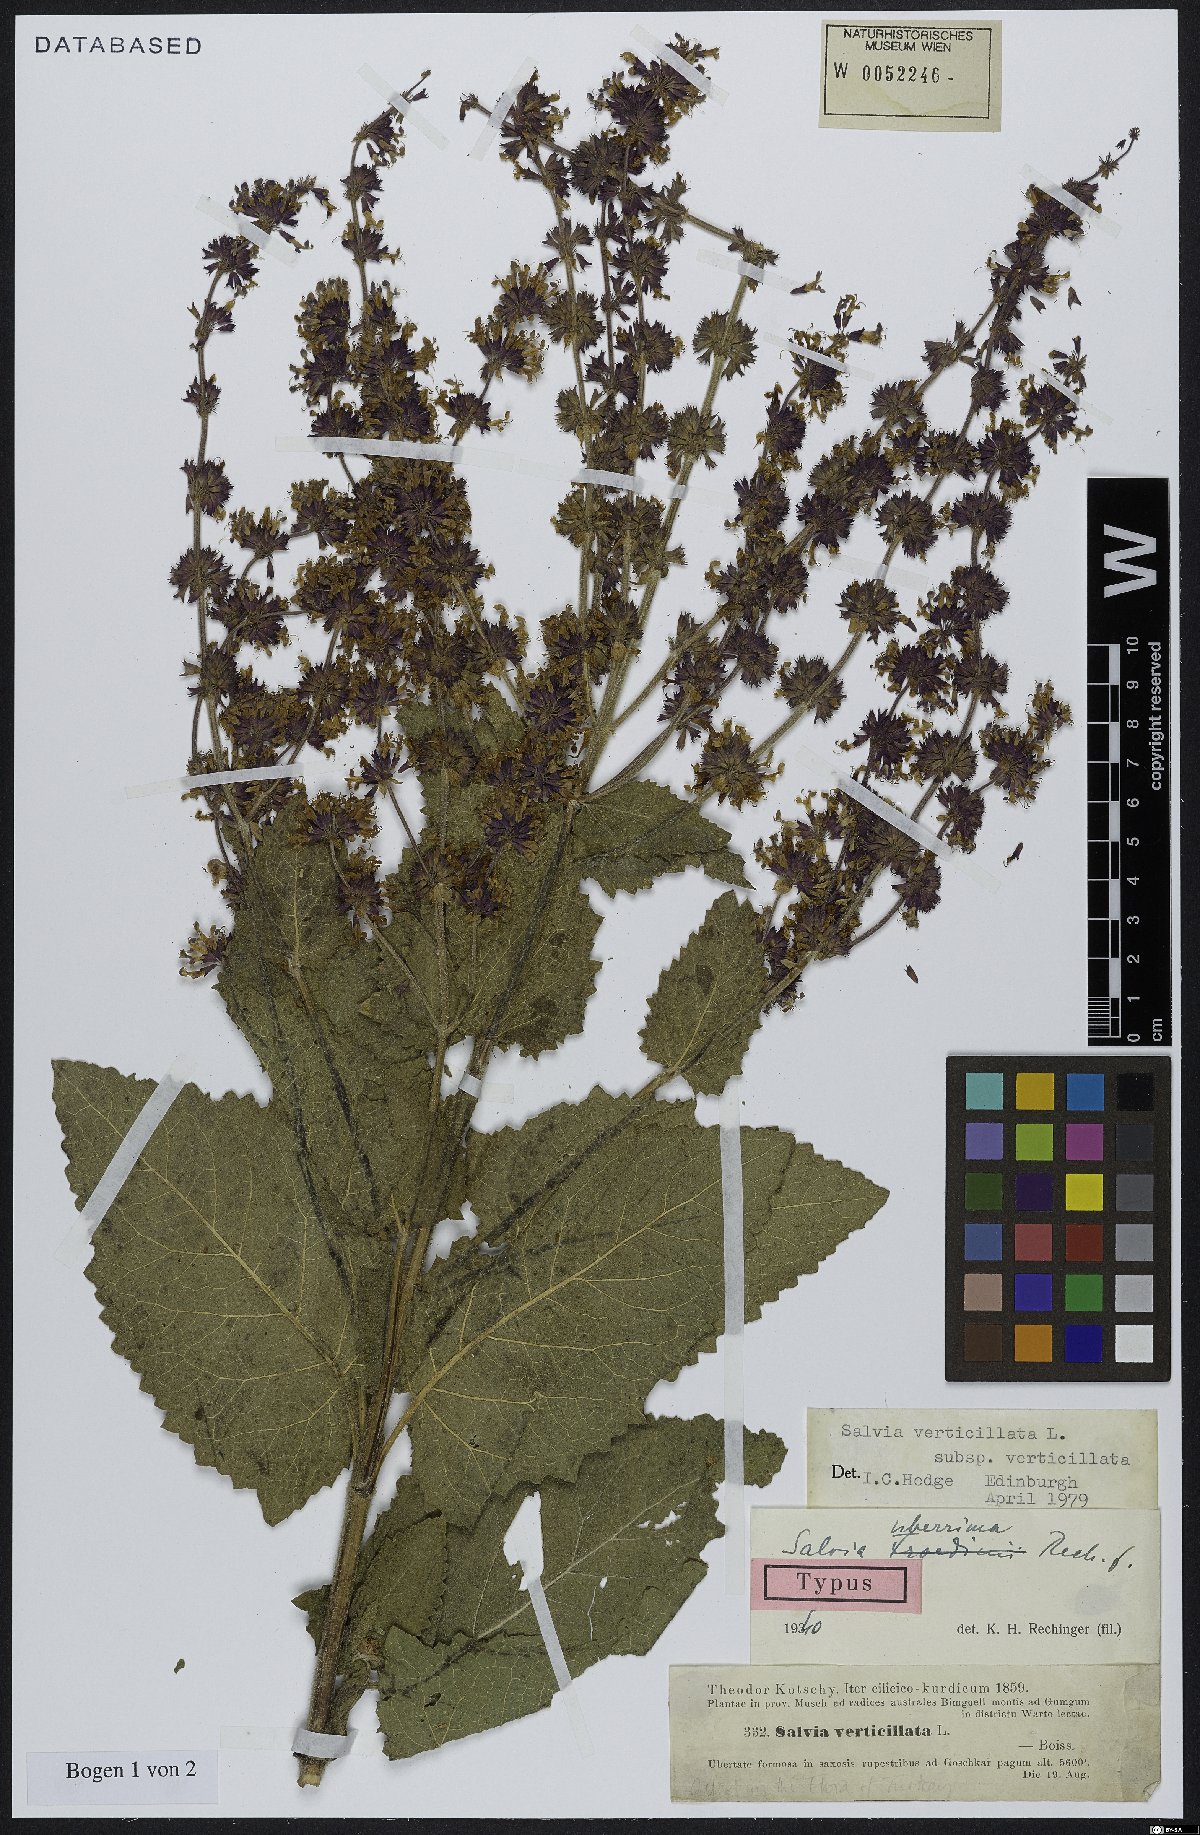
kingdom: Plantae
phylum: Tracheophyta
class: Magnoliopsida
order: Lamiales
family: Lamiaceae
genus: Salvia
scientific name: Salvia verticillata
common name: Whorled clary
